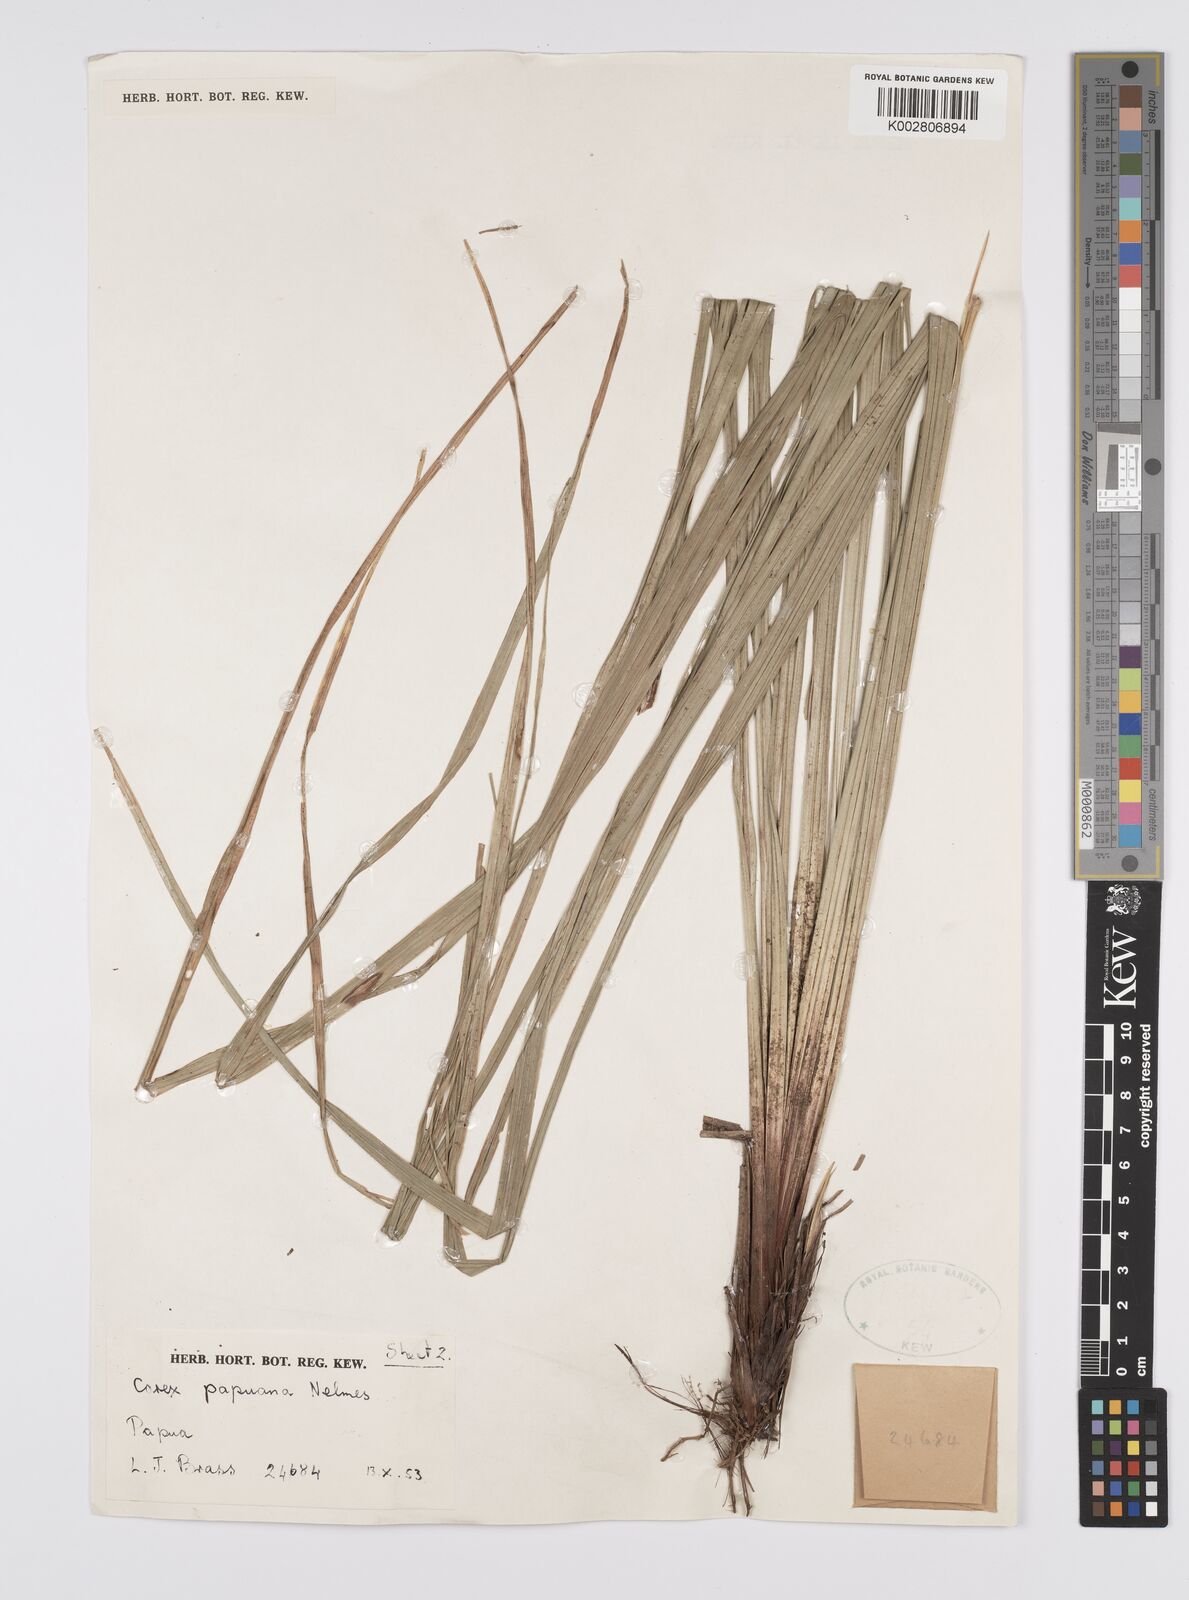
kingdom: Plantae
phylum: Tracheophyta
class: Liliopsida
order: Poales
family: Cyperaceae
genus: Carex
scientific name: Carex lamprochlamys
